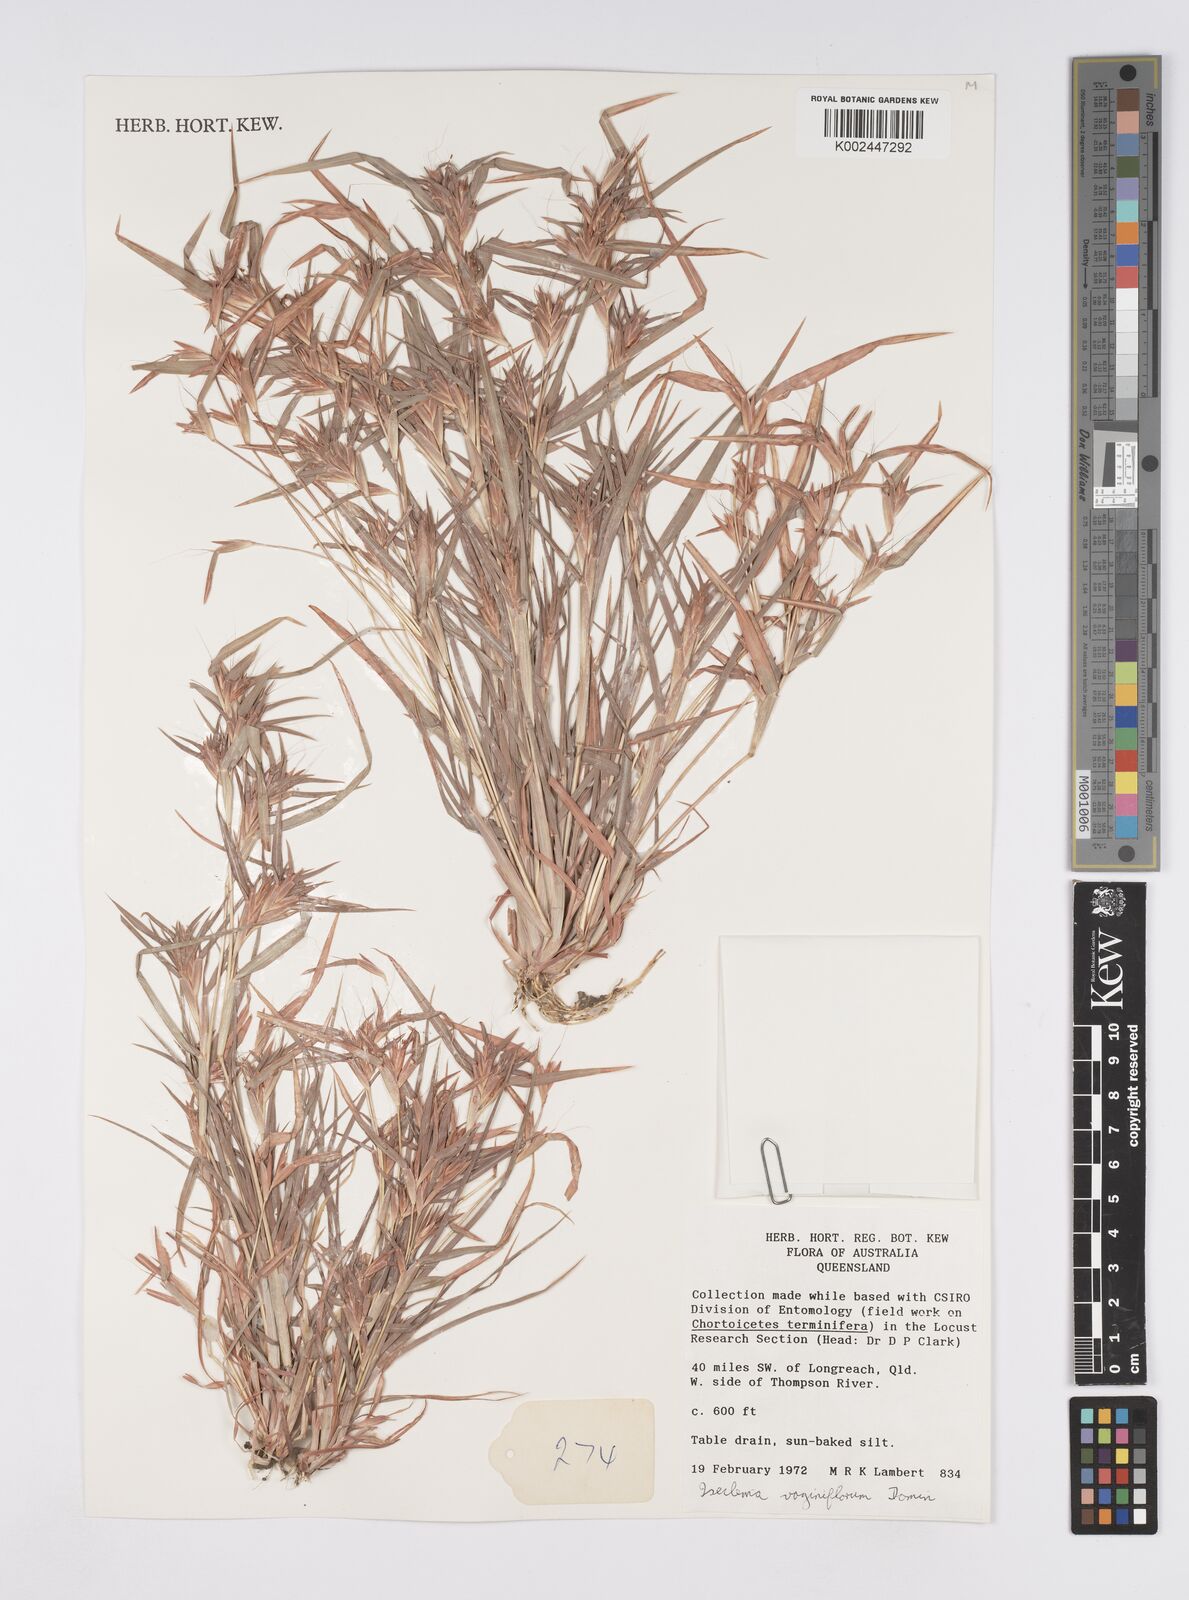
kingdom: Plantae
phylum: Tracheophyta
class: Liliopsida
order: Poales
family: Poaceae
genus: Iseilema
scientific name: Iseilema vaginiflorum
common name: Red flinders grass
